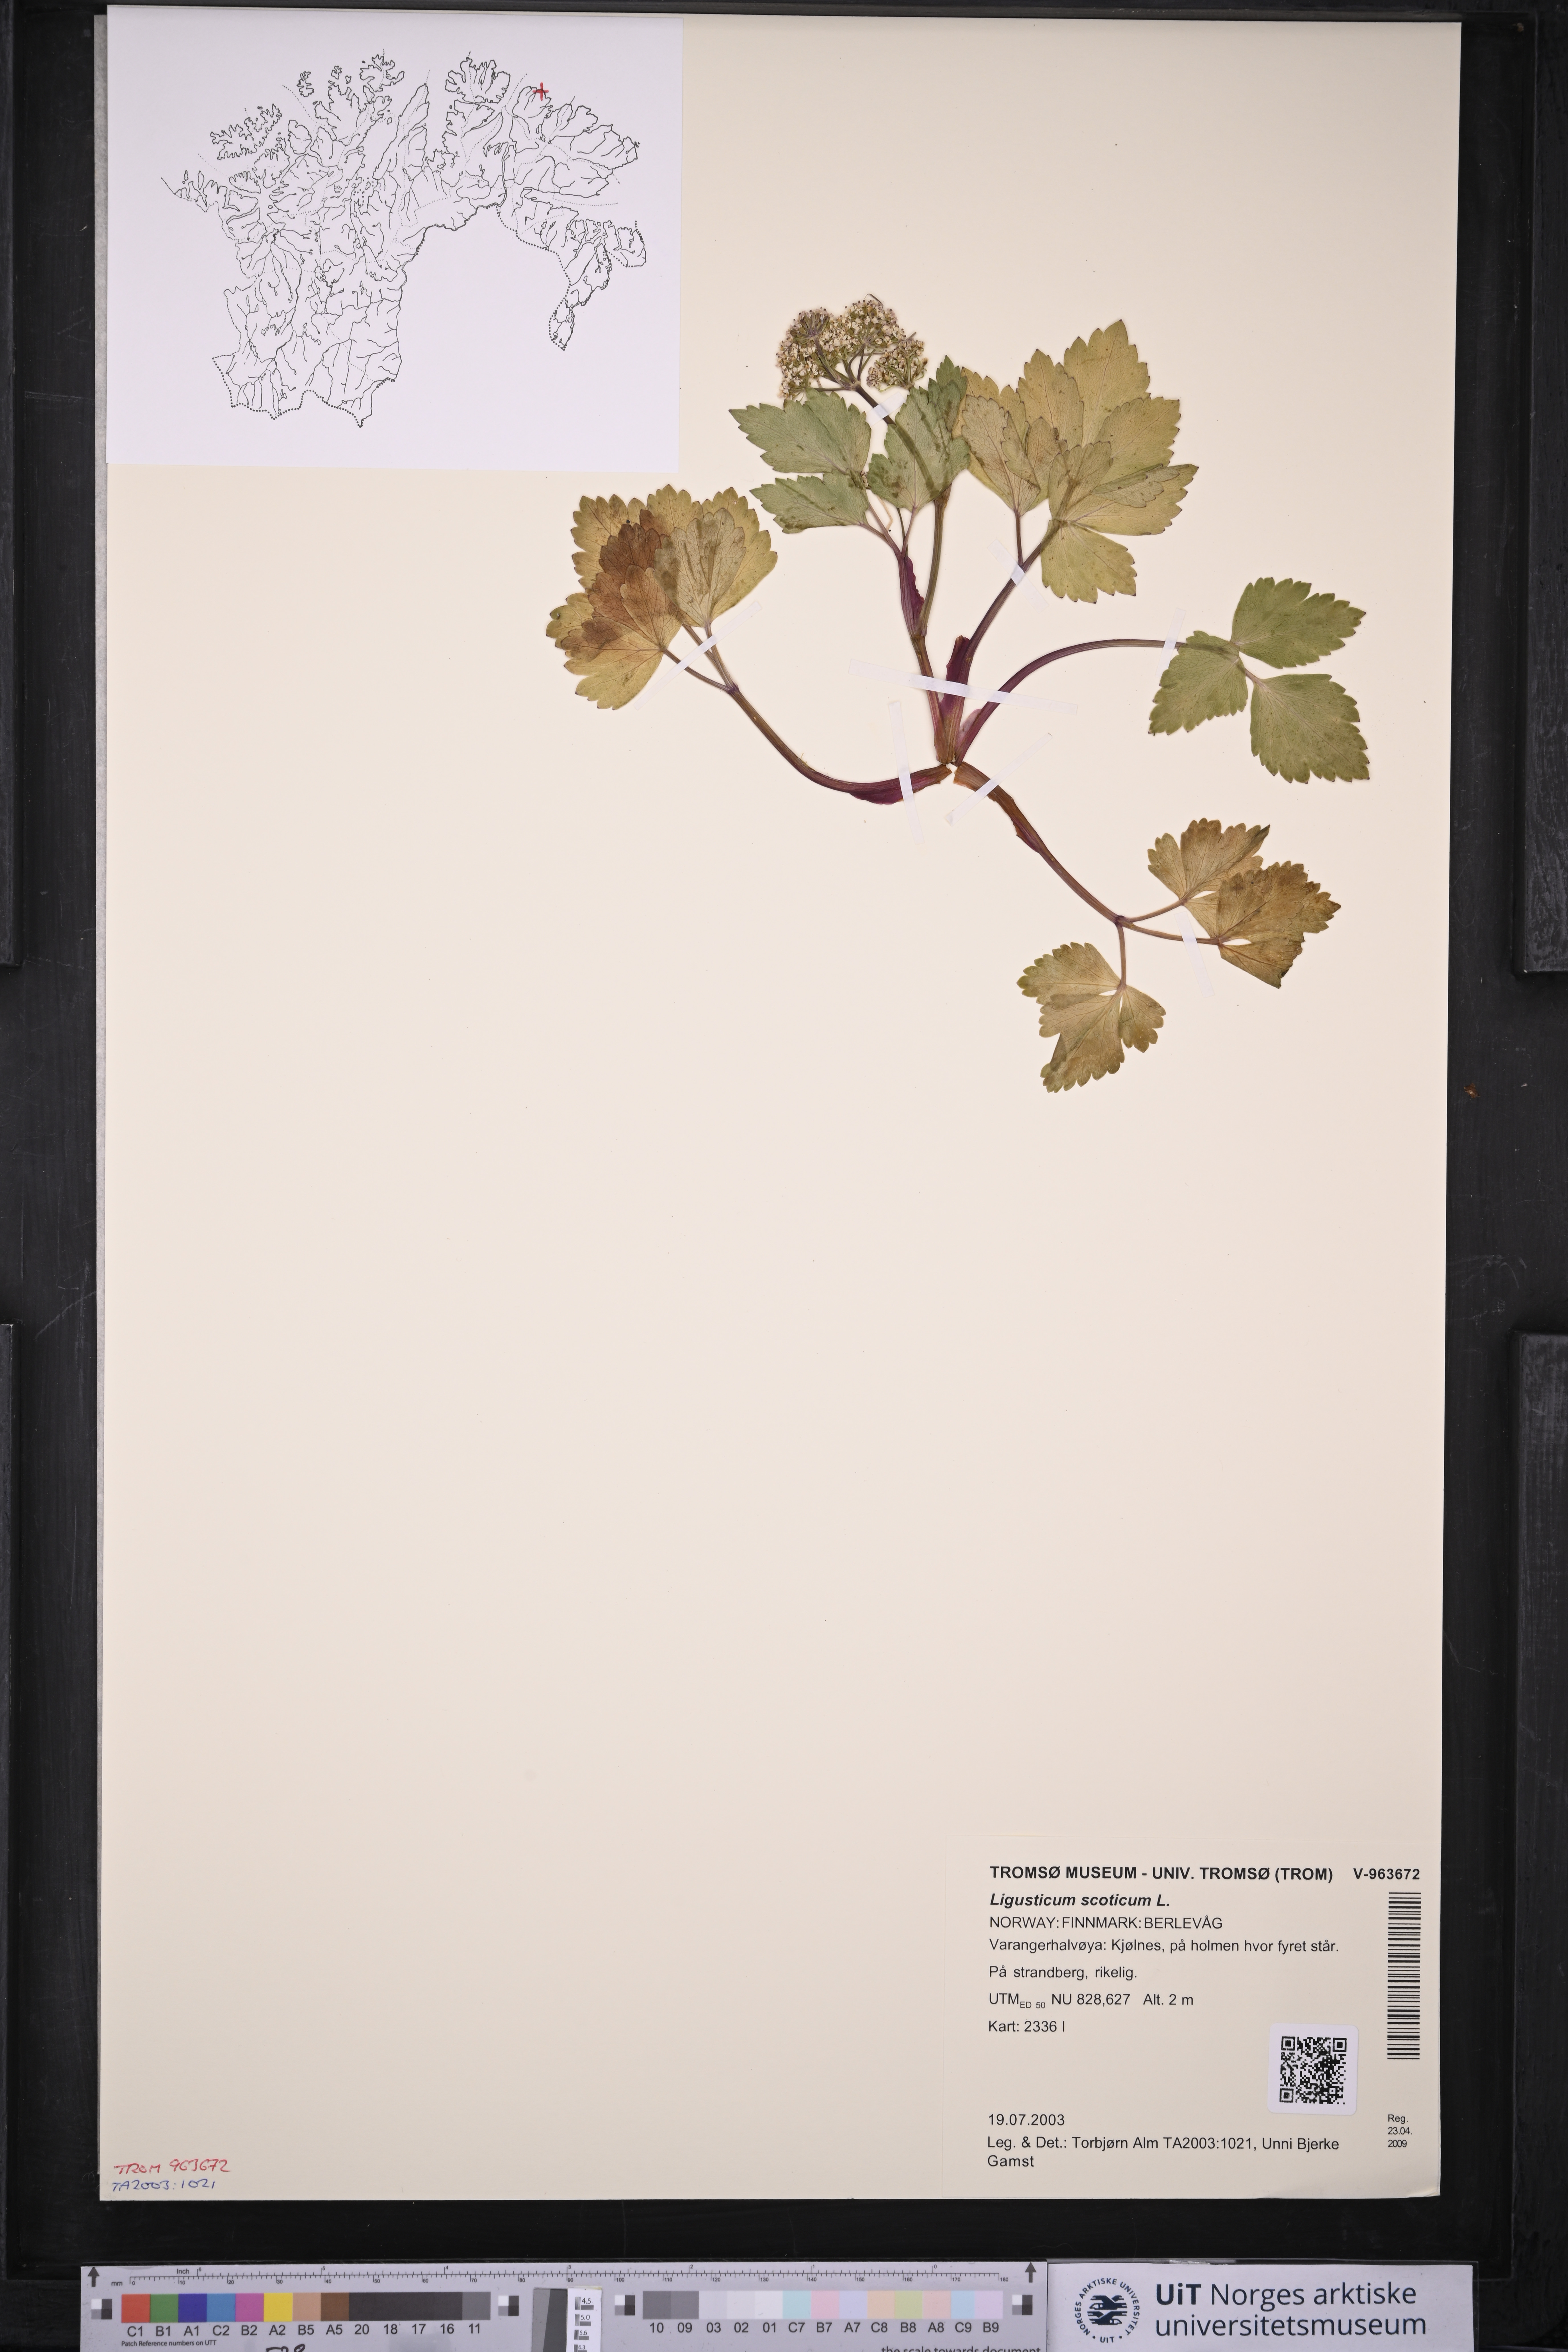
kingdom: Plantae
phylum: Tracheophyta
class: Magnoliopsida
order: Apiales
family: Apiaceae
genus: Ligusticum
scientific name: Ligusticum scothicum
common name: Beach lovage
